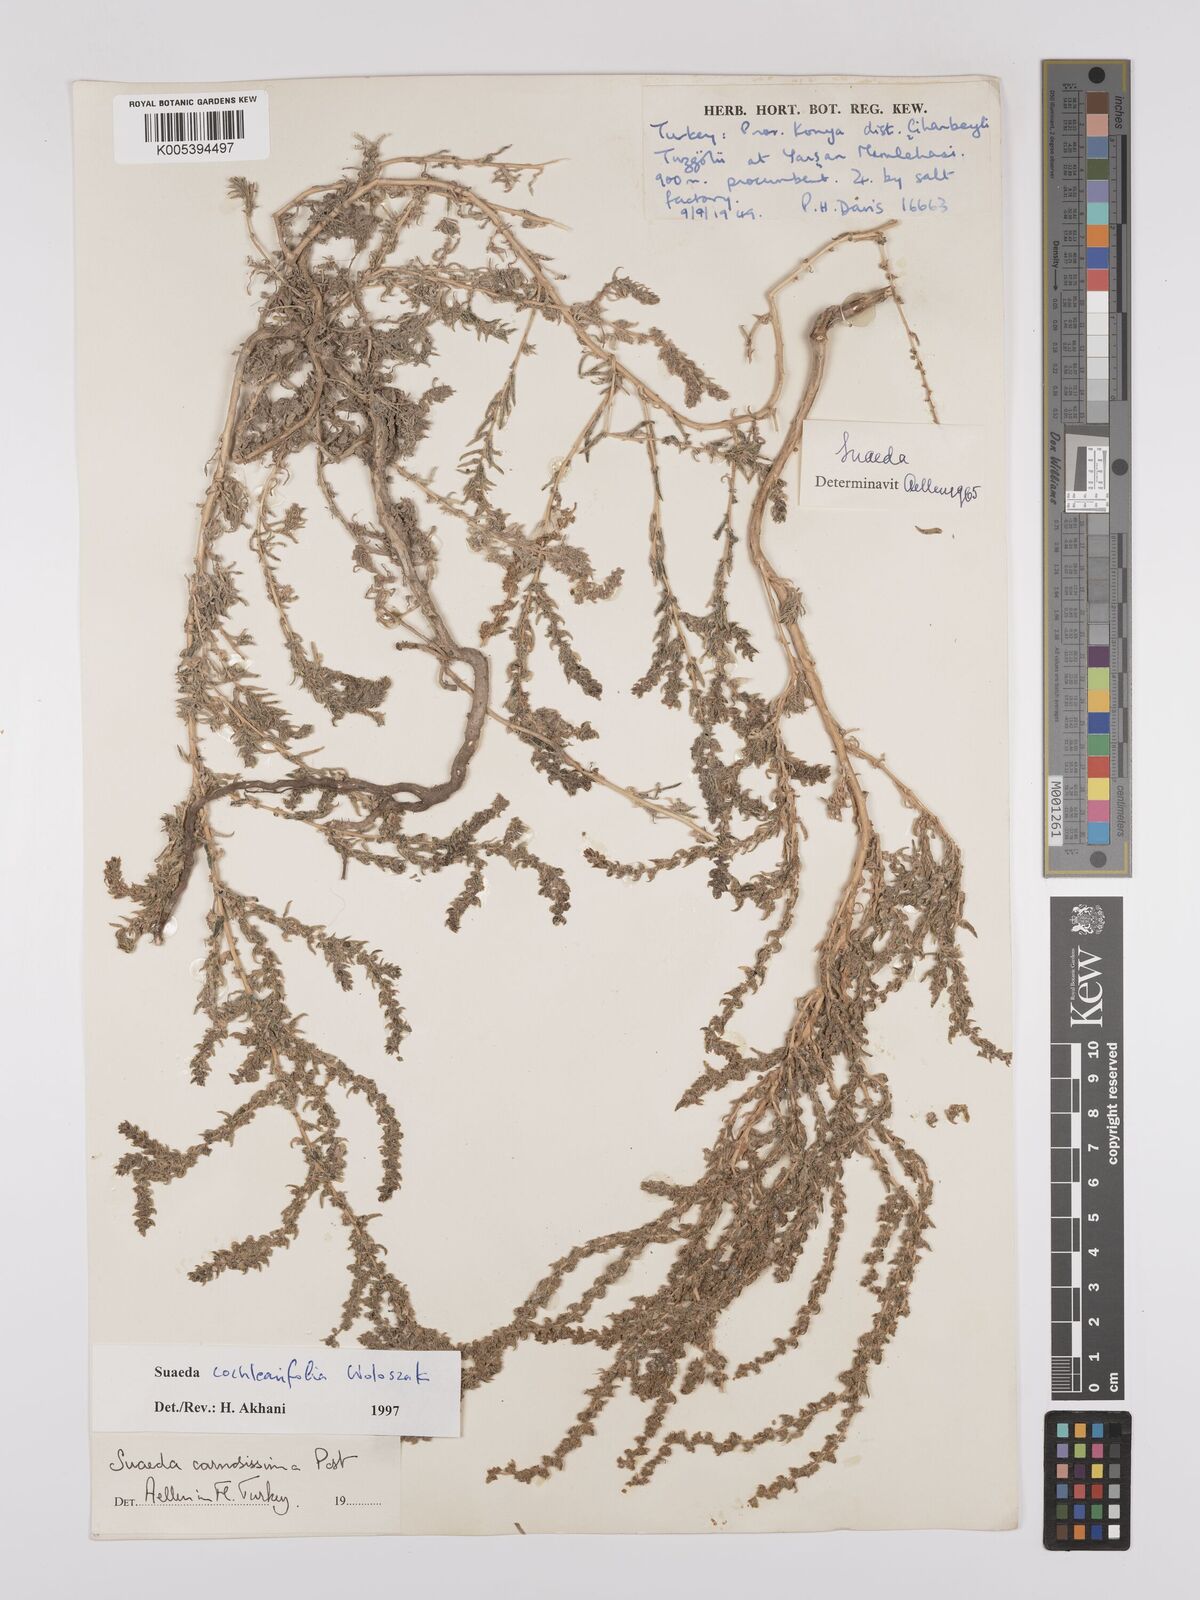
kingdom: Plantae
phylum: Tracheophyta
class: Magnoliopsida
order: Caryophyllales
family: Amaranthaceae
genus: Suaeda
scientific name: Suaeda carnosissima
